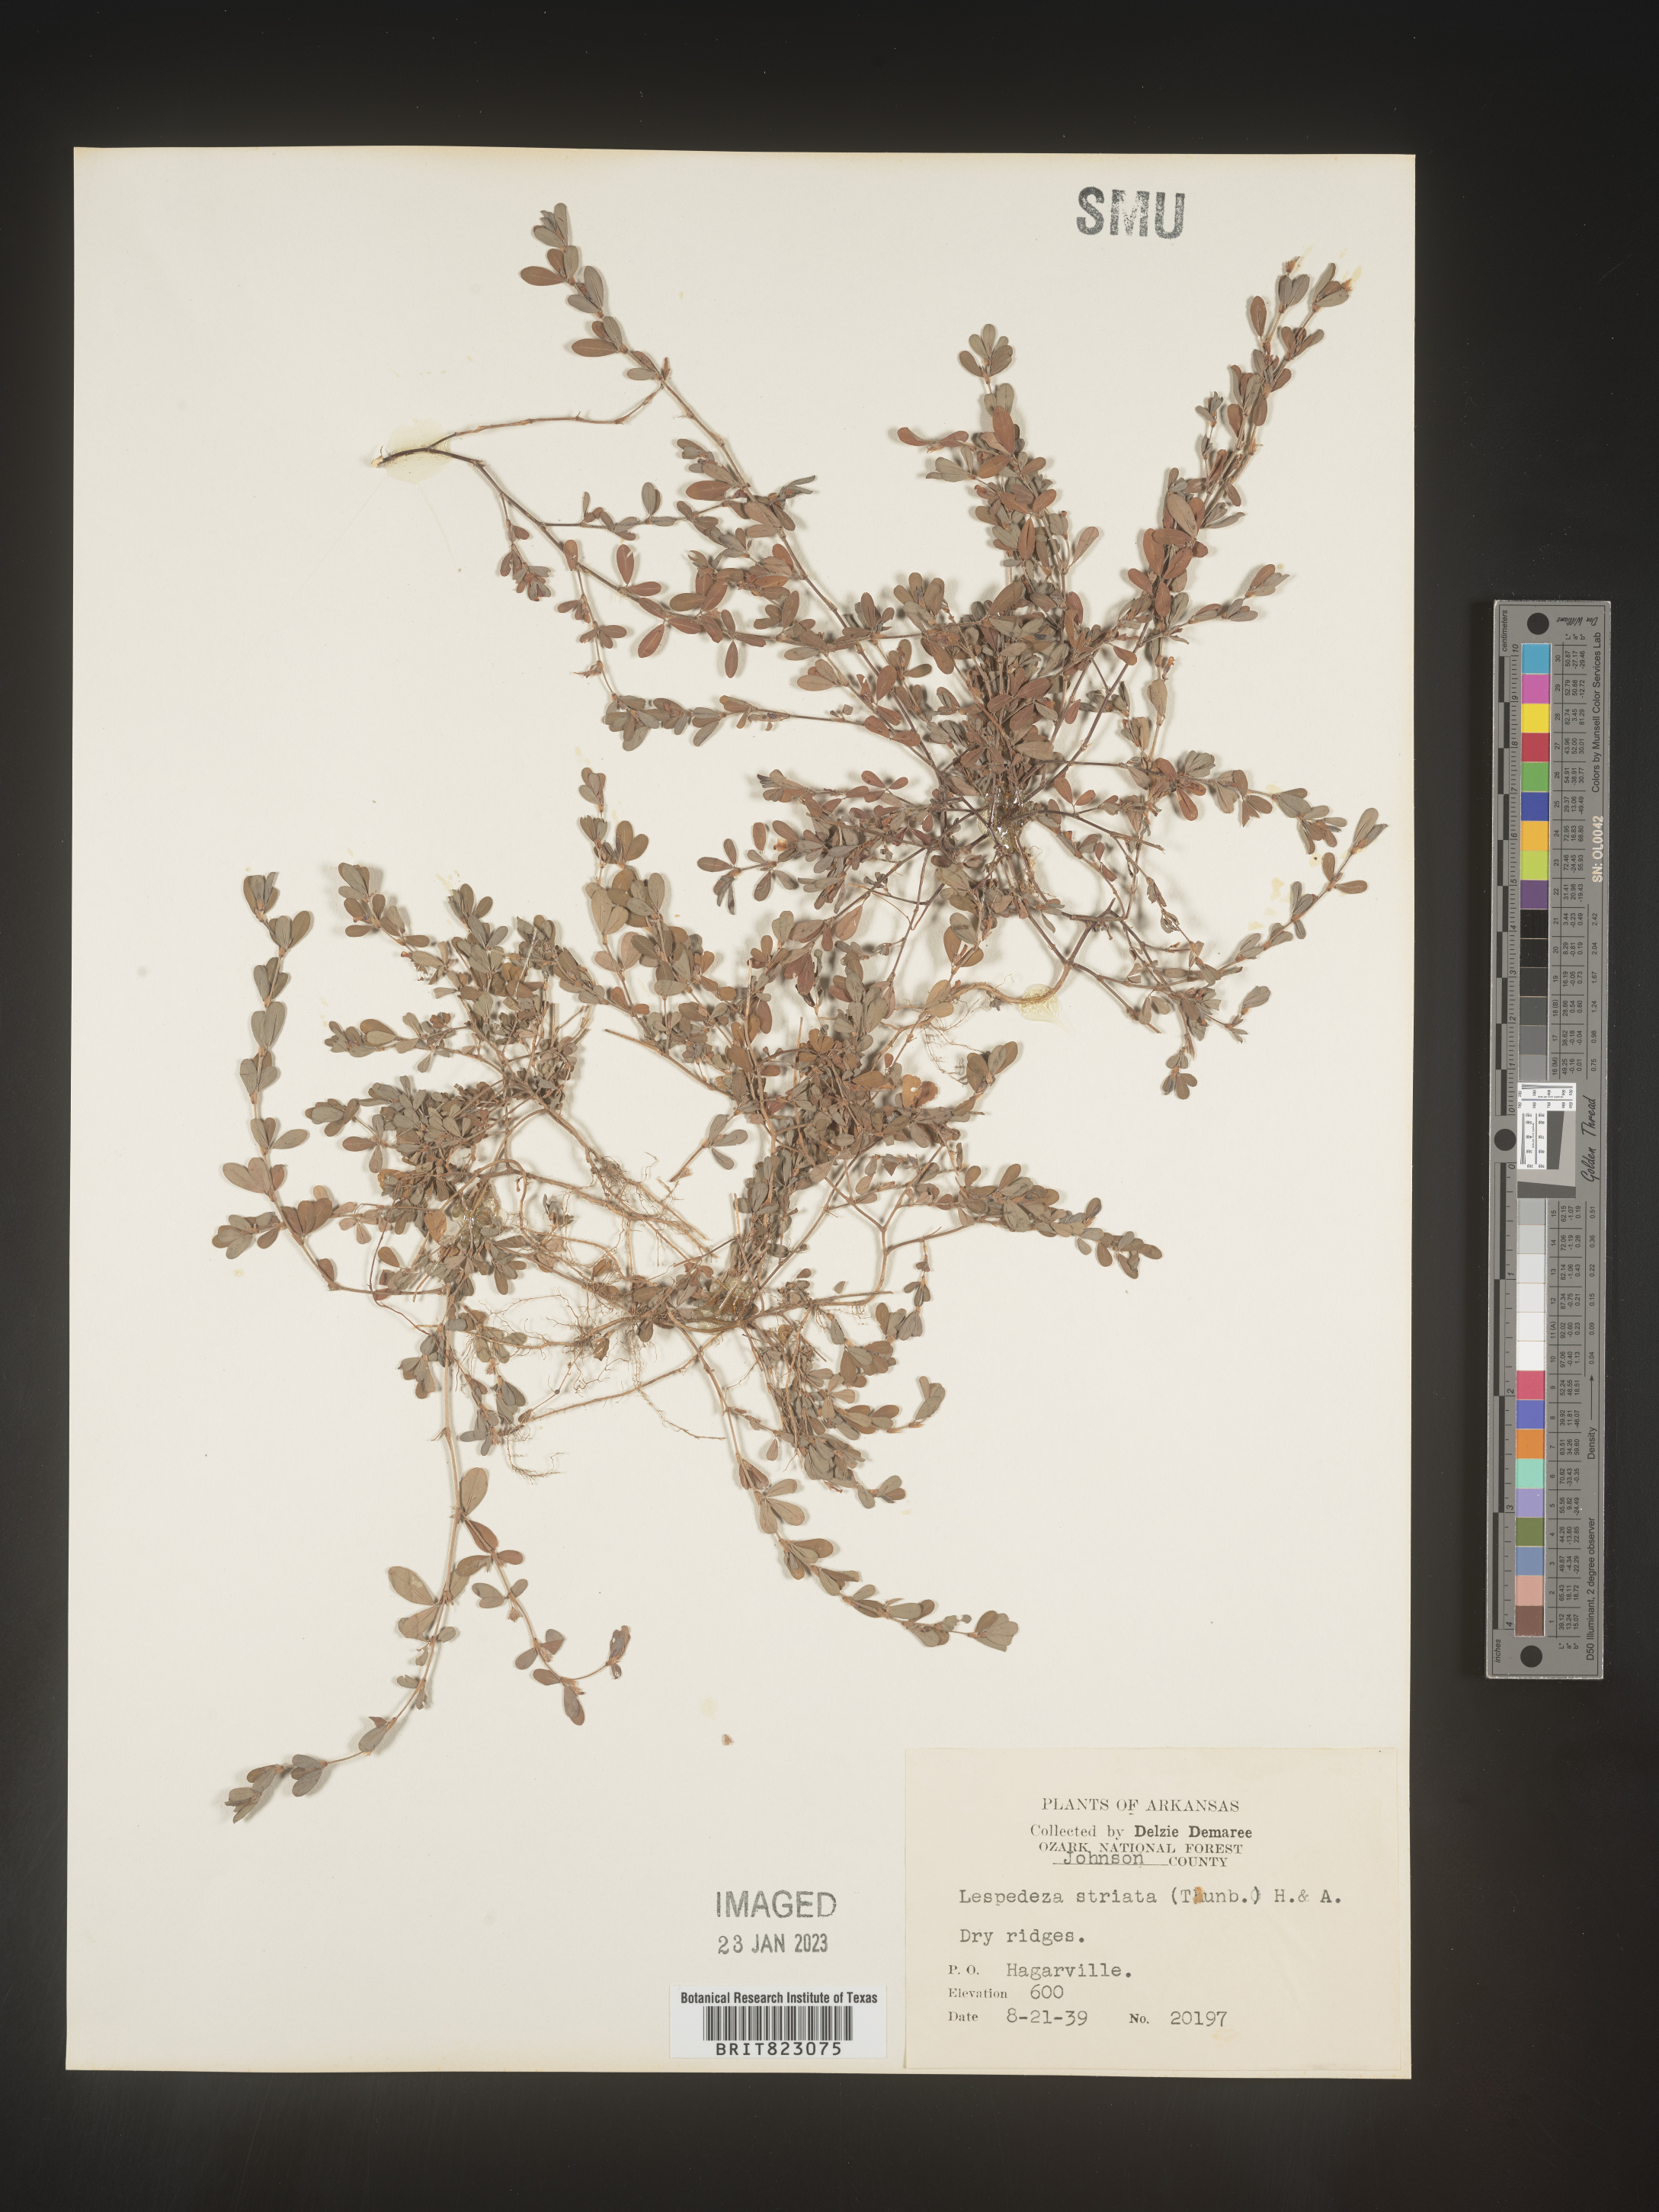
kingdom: Plantae
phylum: Tracheophyta
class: Magnoliopsida
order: Fabales
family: Fabaceae
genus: Kummerowia
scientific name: Kummerowia striata
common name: Japanese clover
